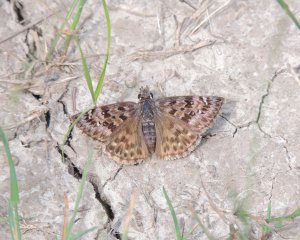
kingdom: Animalia
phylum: Arthropoda
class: Insecta
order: Lepidoptera
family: Hesperiidae
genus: Erynnis
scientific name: Erynnis martialis
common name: Mottled Duskywing
